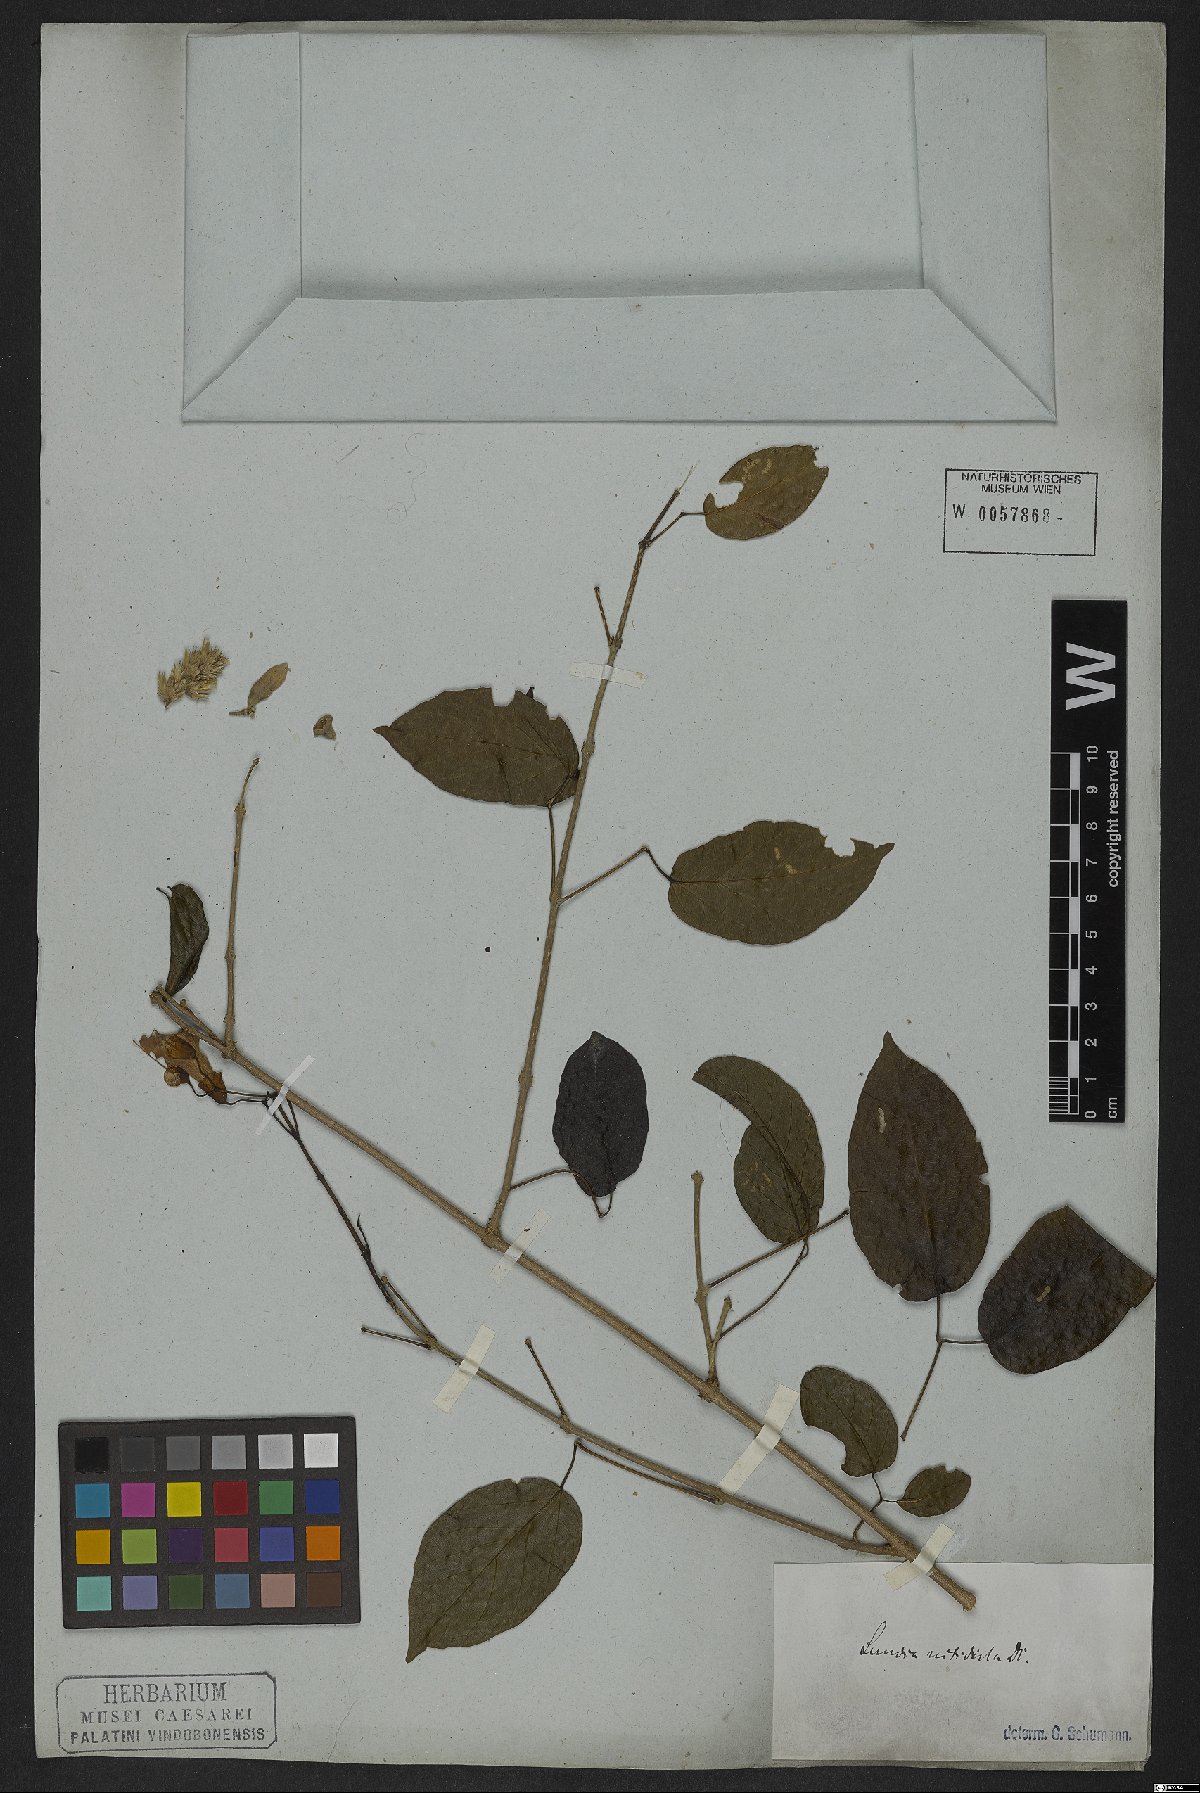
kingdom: Plantae
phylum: Tracheophyta
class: Magnoliopsida
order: Lamiales
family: Bignoniaceae
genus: Lundia
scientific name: Lundia nitidula
